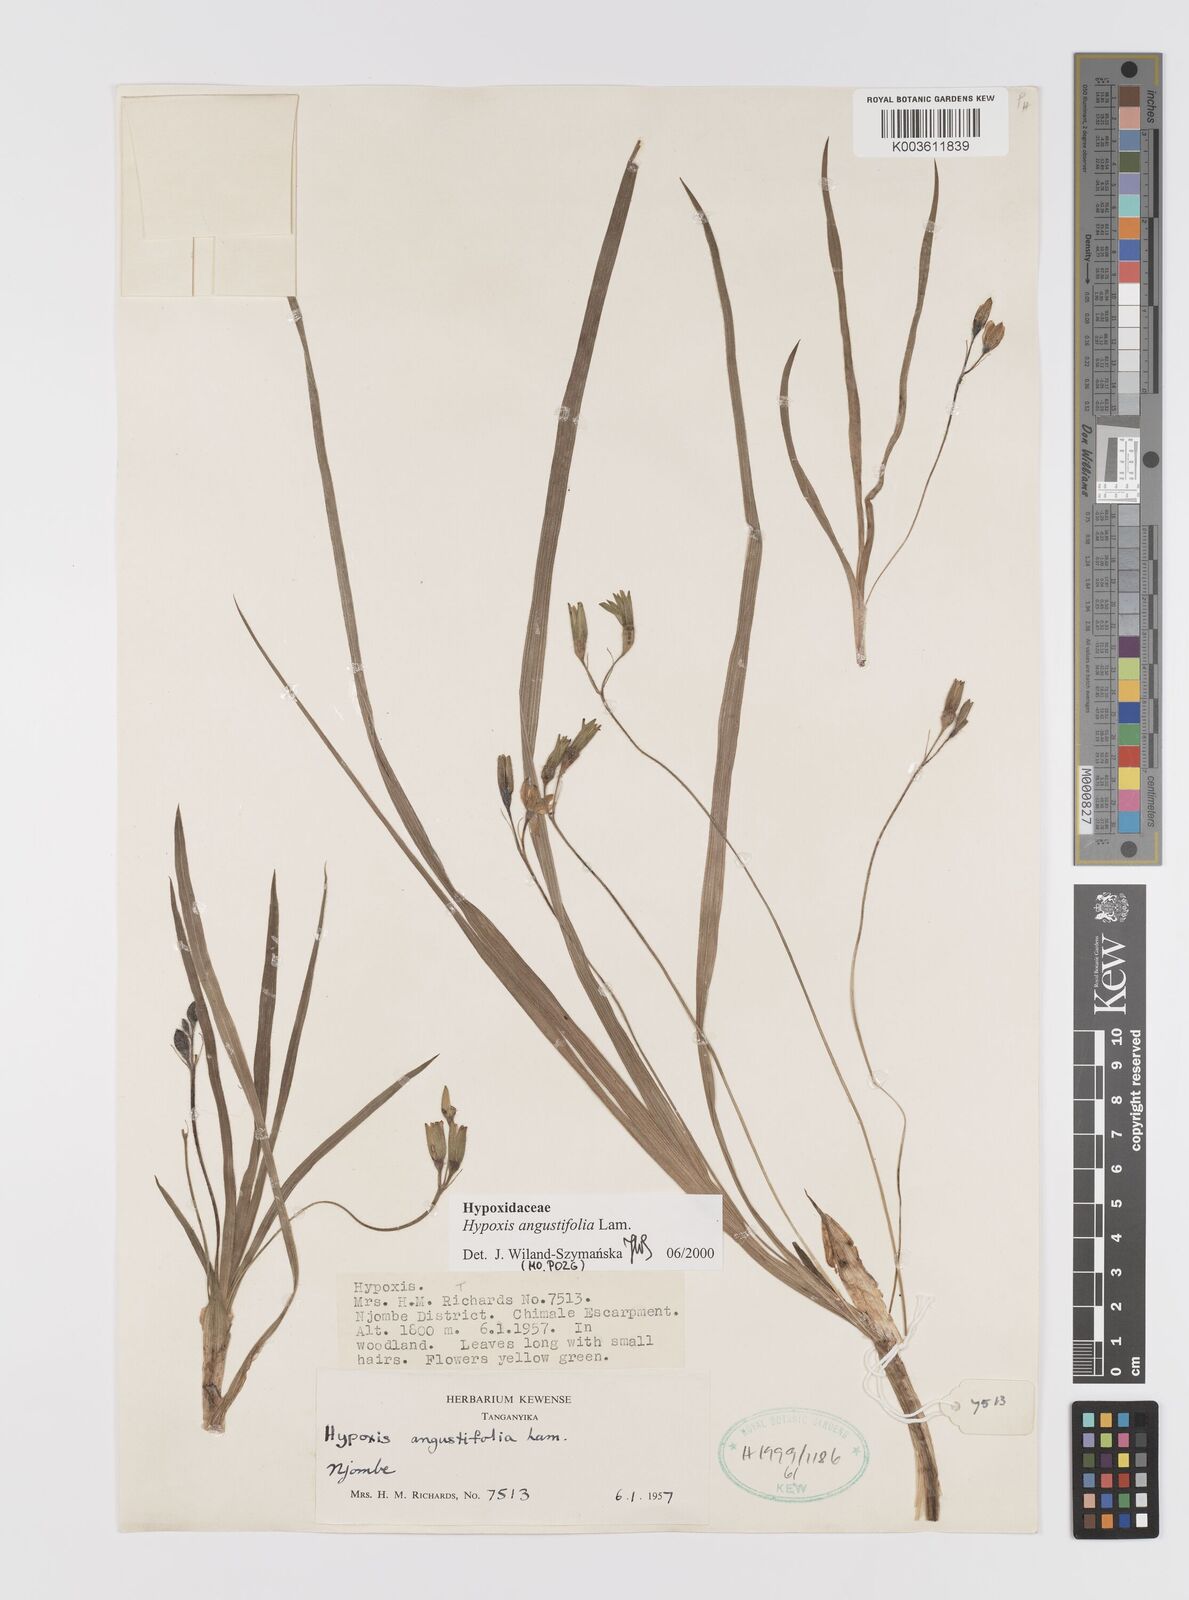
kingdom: Plantae
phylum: Tracheophyta
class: Liliopsida
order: Asparagales
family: Hypoxidaceae
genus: Hypoxis
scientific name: Hypoxis angustifolia
